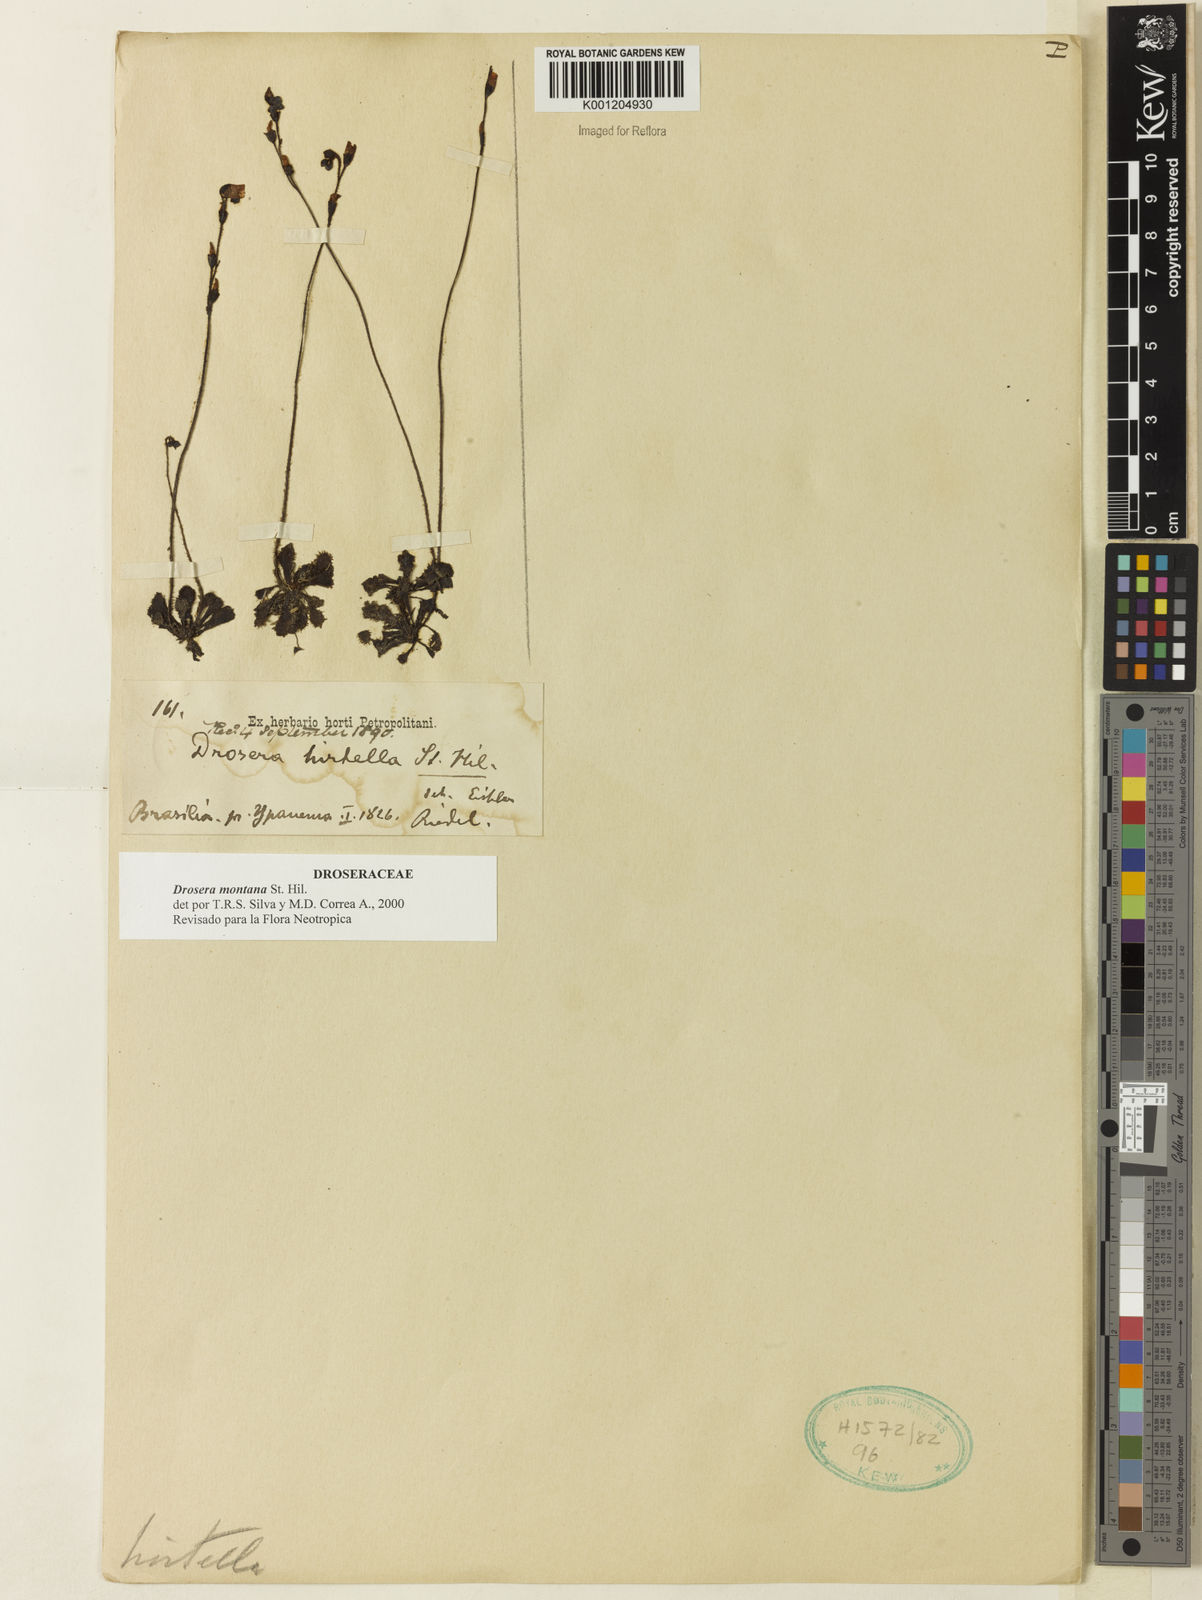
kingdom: Plantae
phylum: Tracheophyta
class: Magnoliopsida
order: Caryophyllales
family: Droseraceae
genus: Drosera
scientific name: Drosera montana
